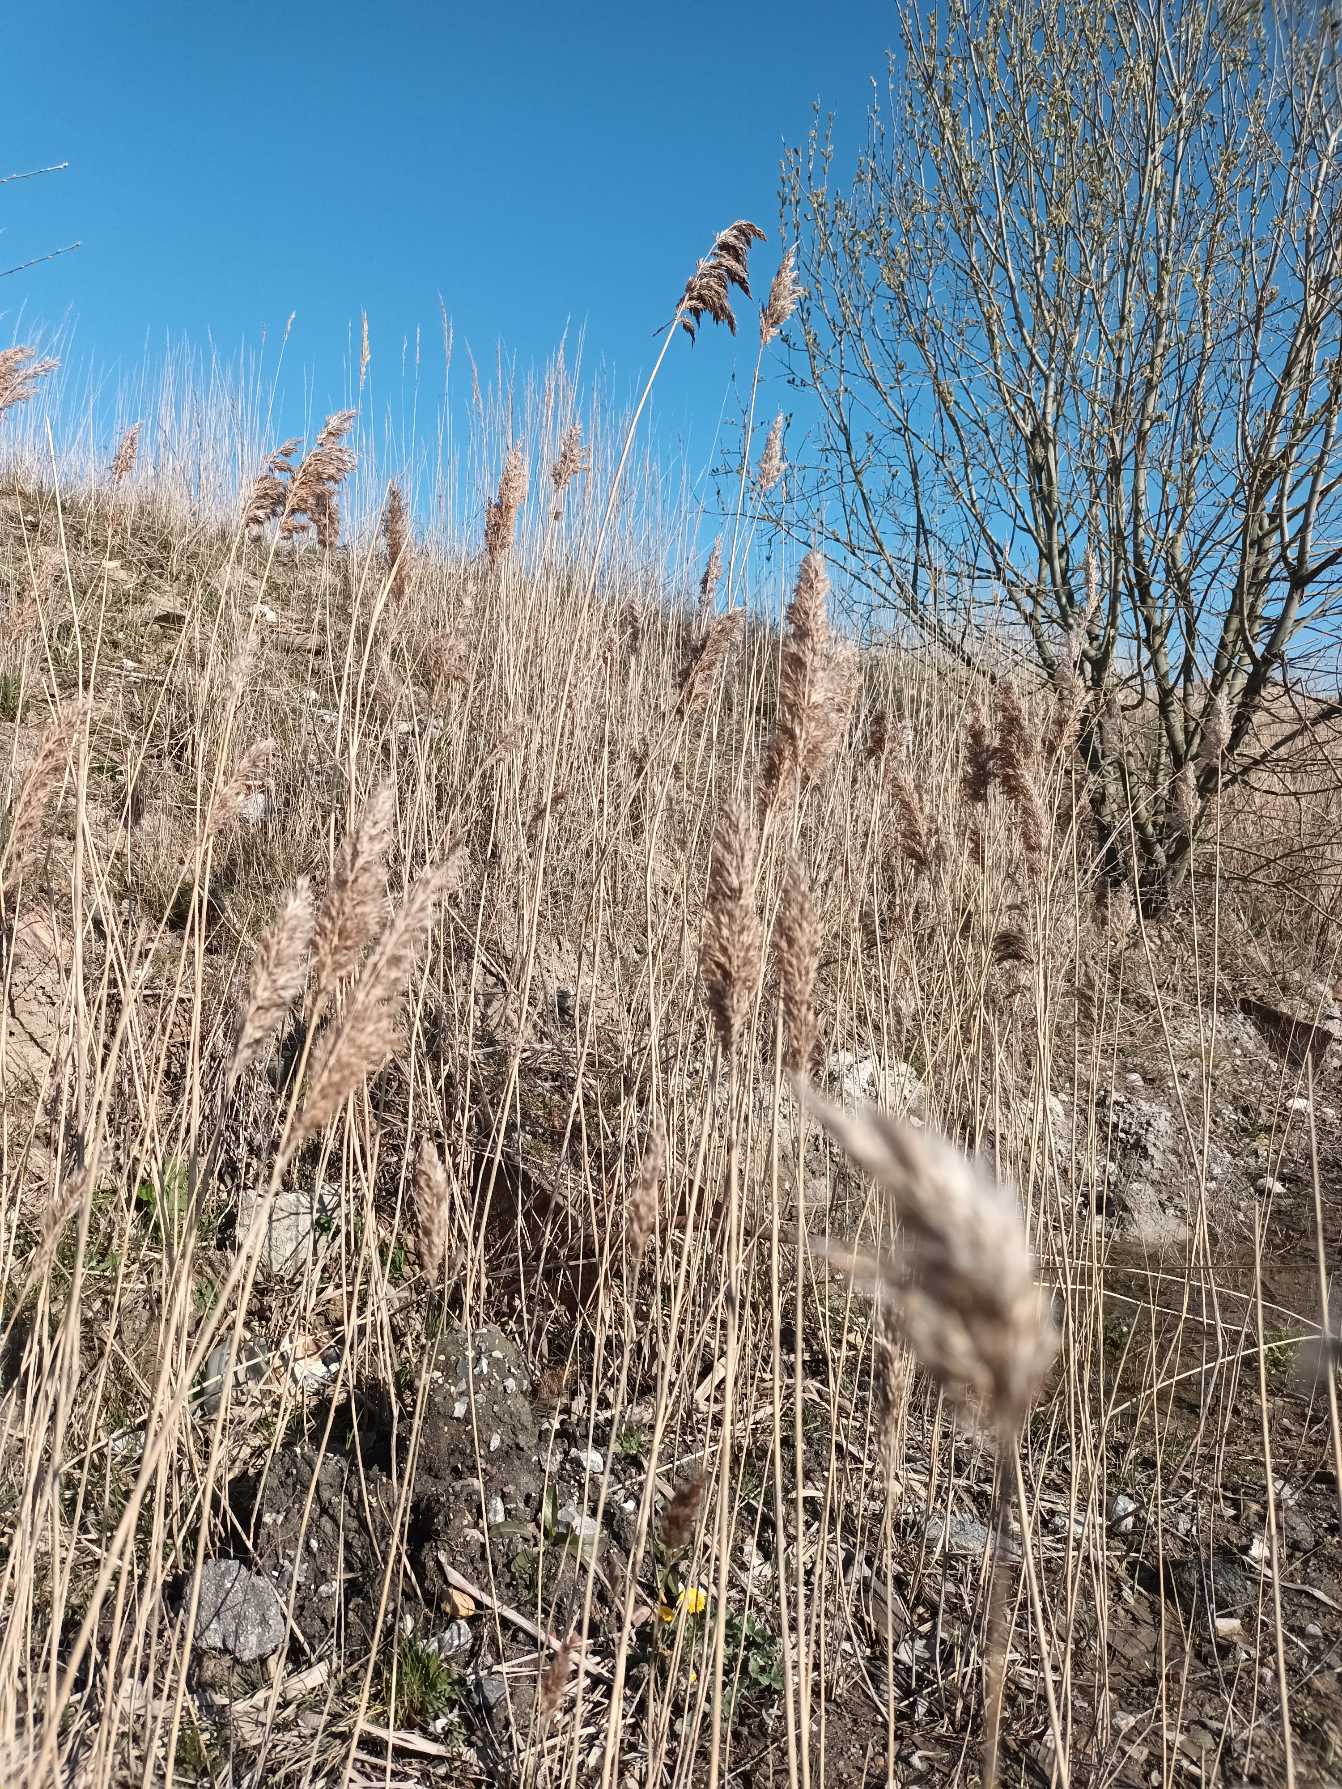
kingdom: Plantae
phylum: Tracheophyta
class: Liliopsida
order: Poales
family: Poaceae
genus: Phragmites
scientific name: Phragmites australis
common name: Tagrør
